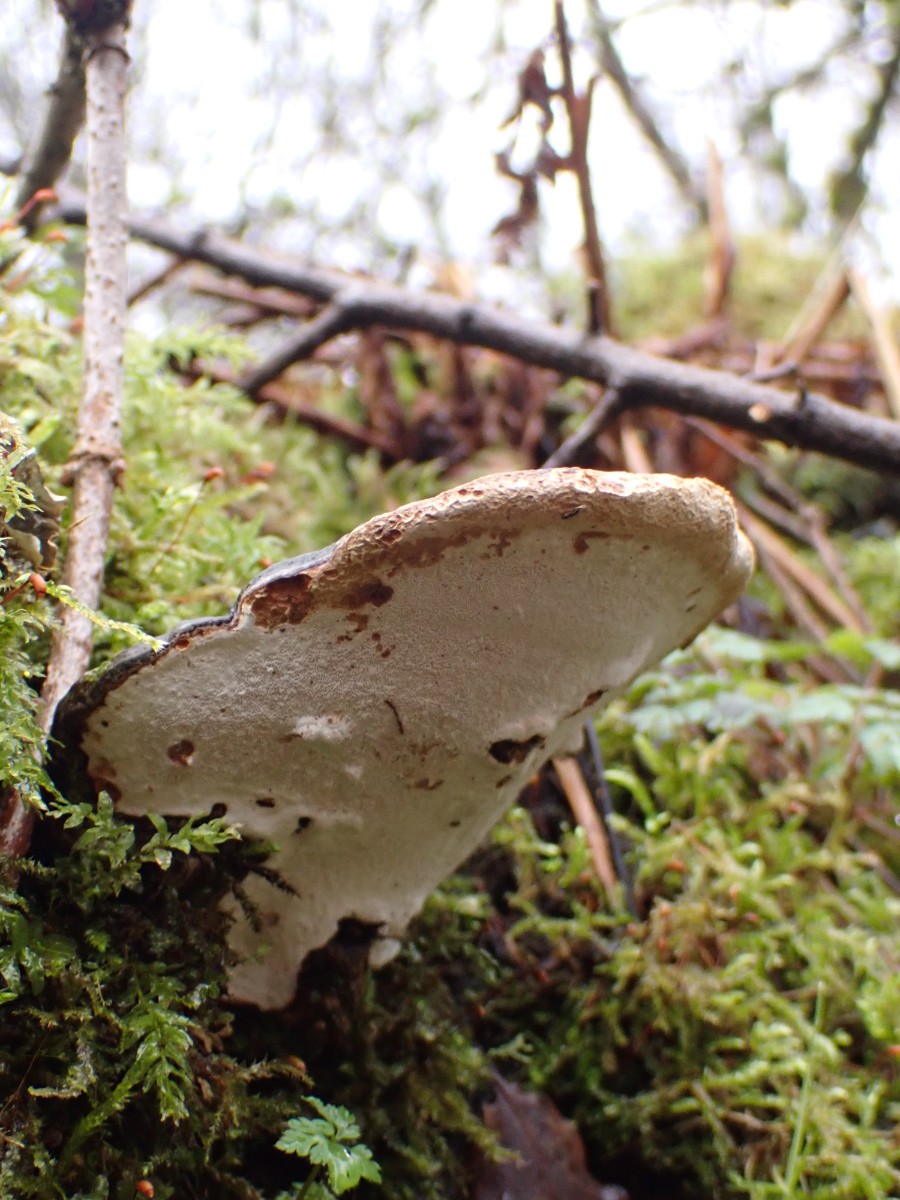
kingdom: Fungi
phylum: Basidiomycota
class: Agaricomycetes
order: Polyporales
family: Polyporaceae
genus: Ganoderma
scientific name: Ganoderma applanatum
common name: flad lakporesvamp
